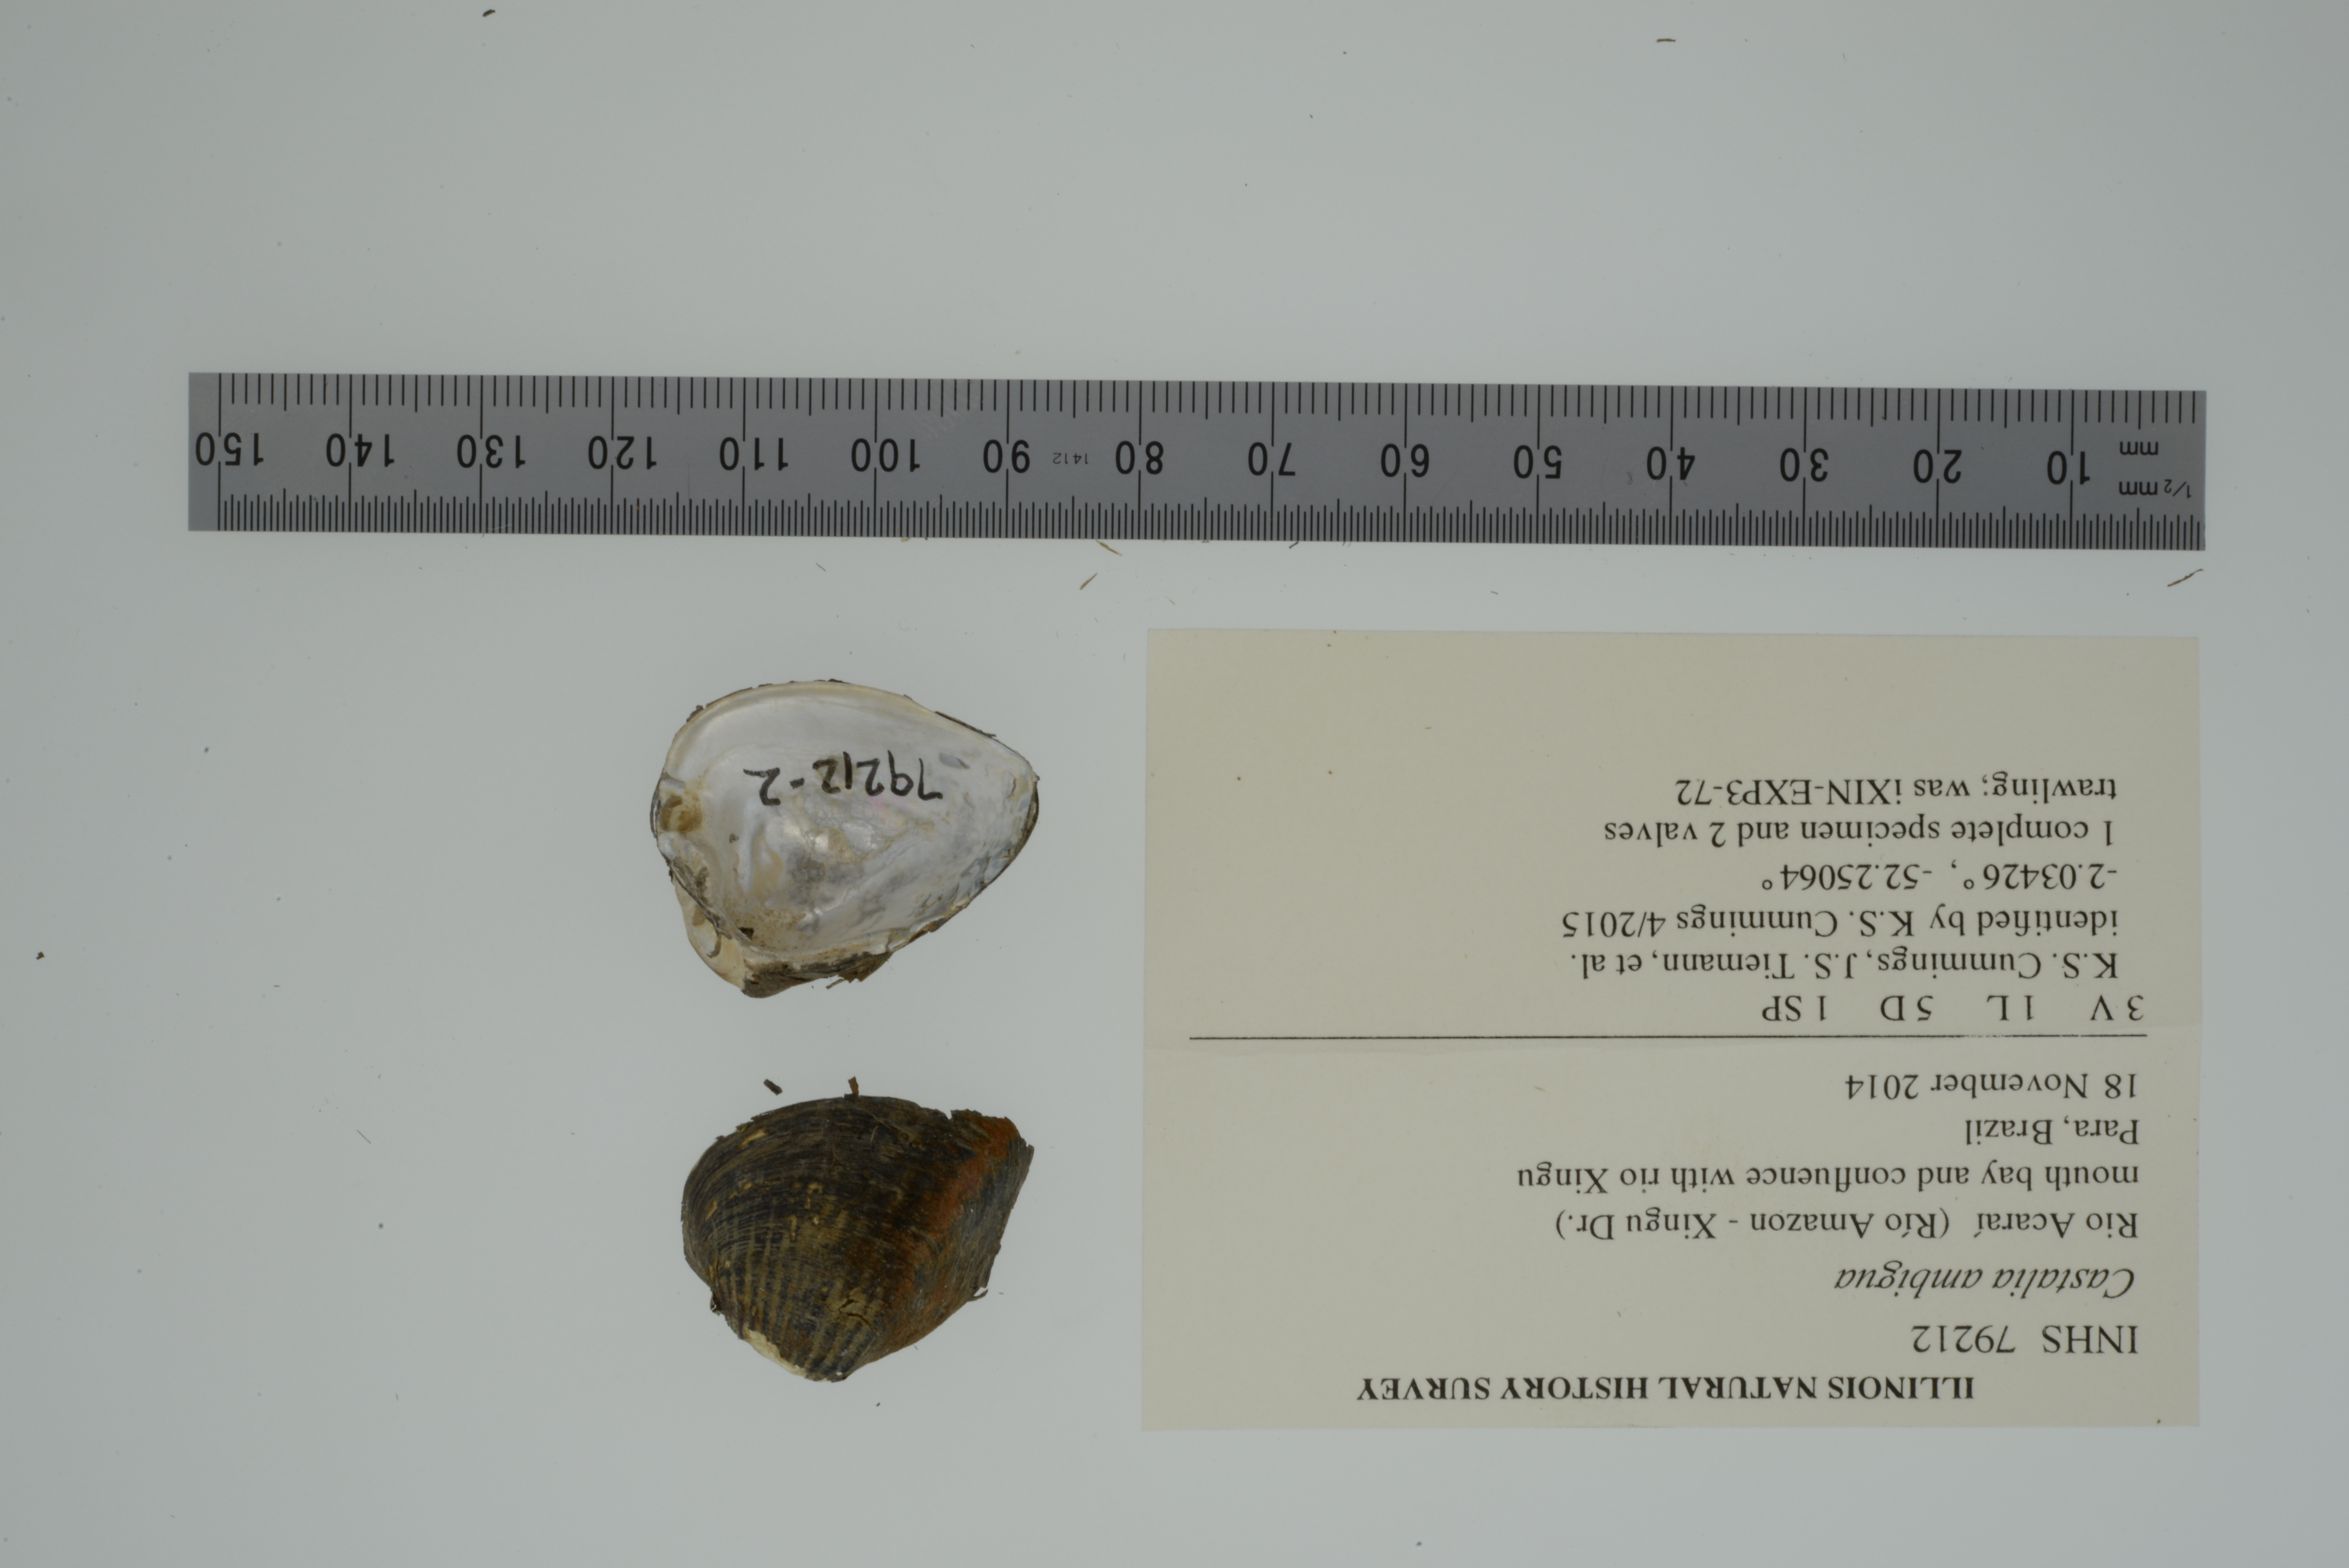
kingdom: Animalia
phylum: Mollusca
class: Bivalvia
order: Unionida
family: Hyriidae
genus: Castalia
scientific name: Castalia ambigua
